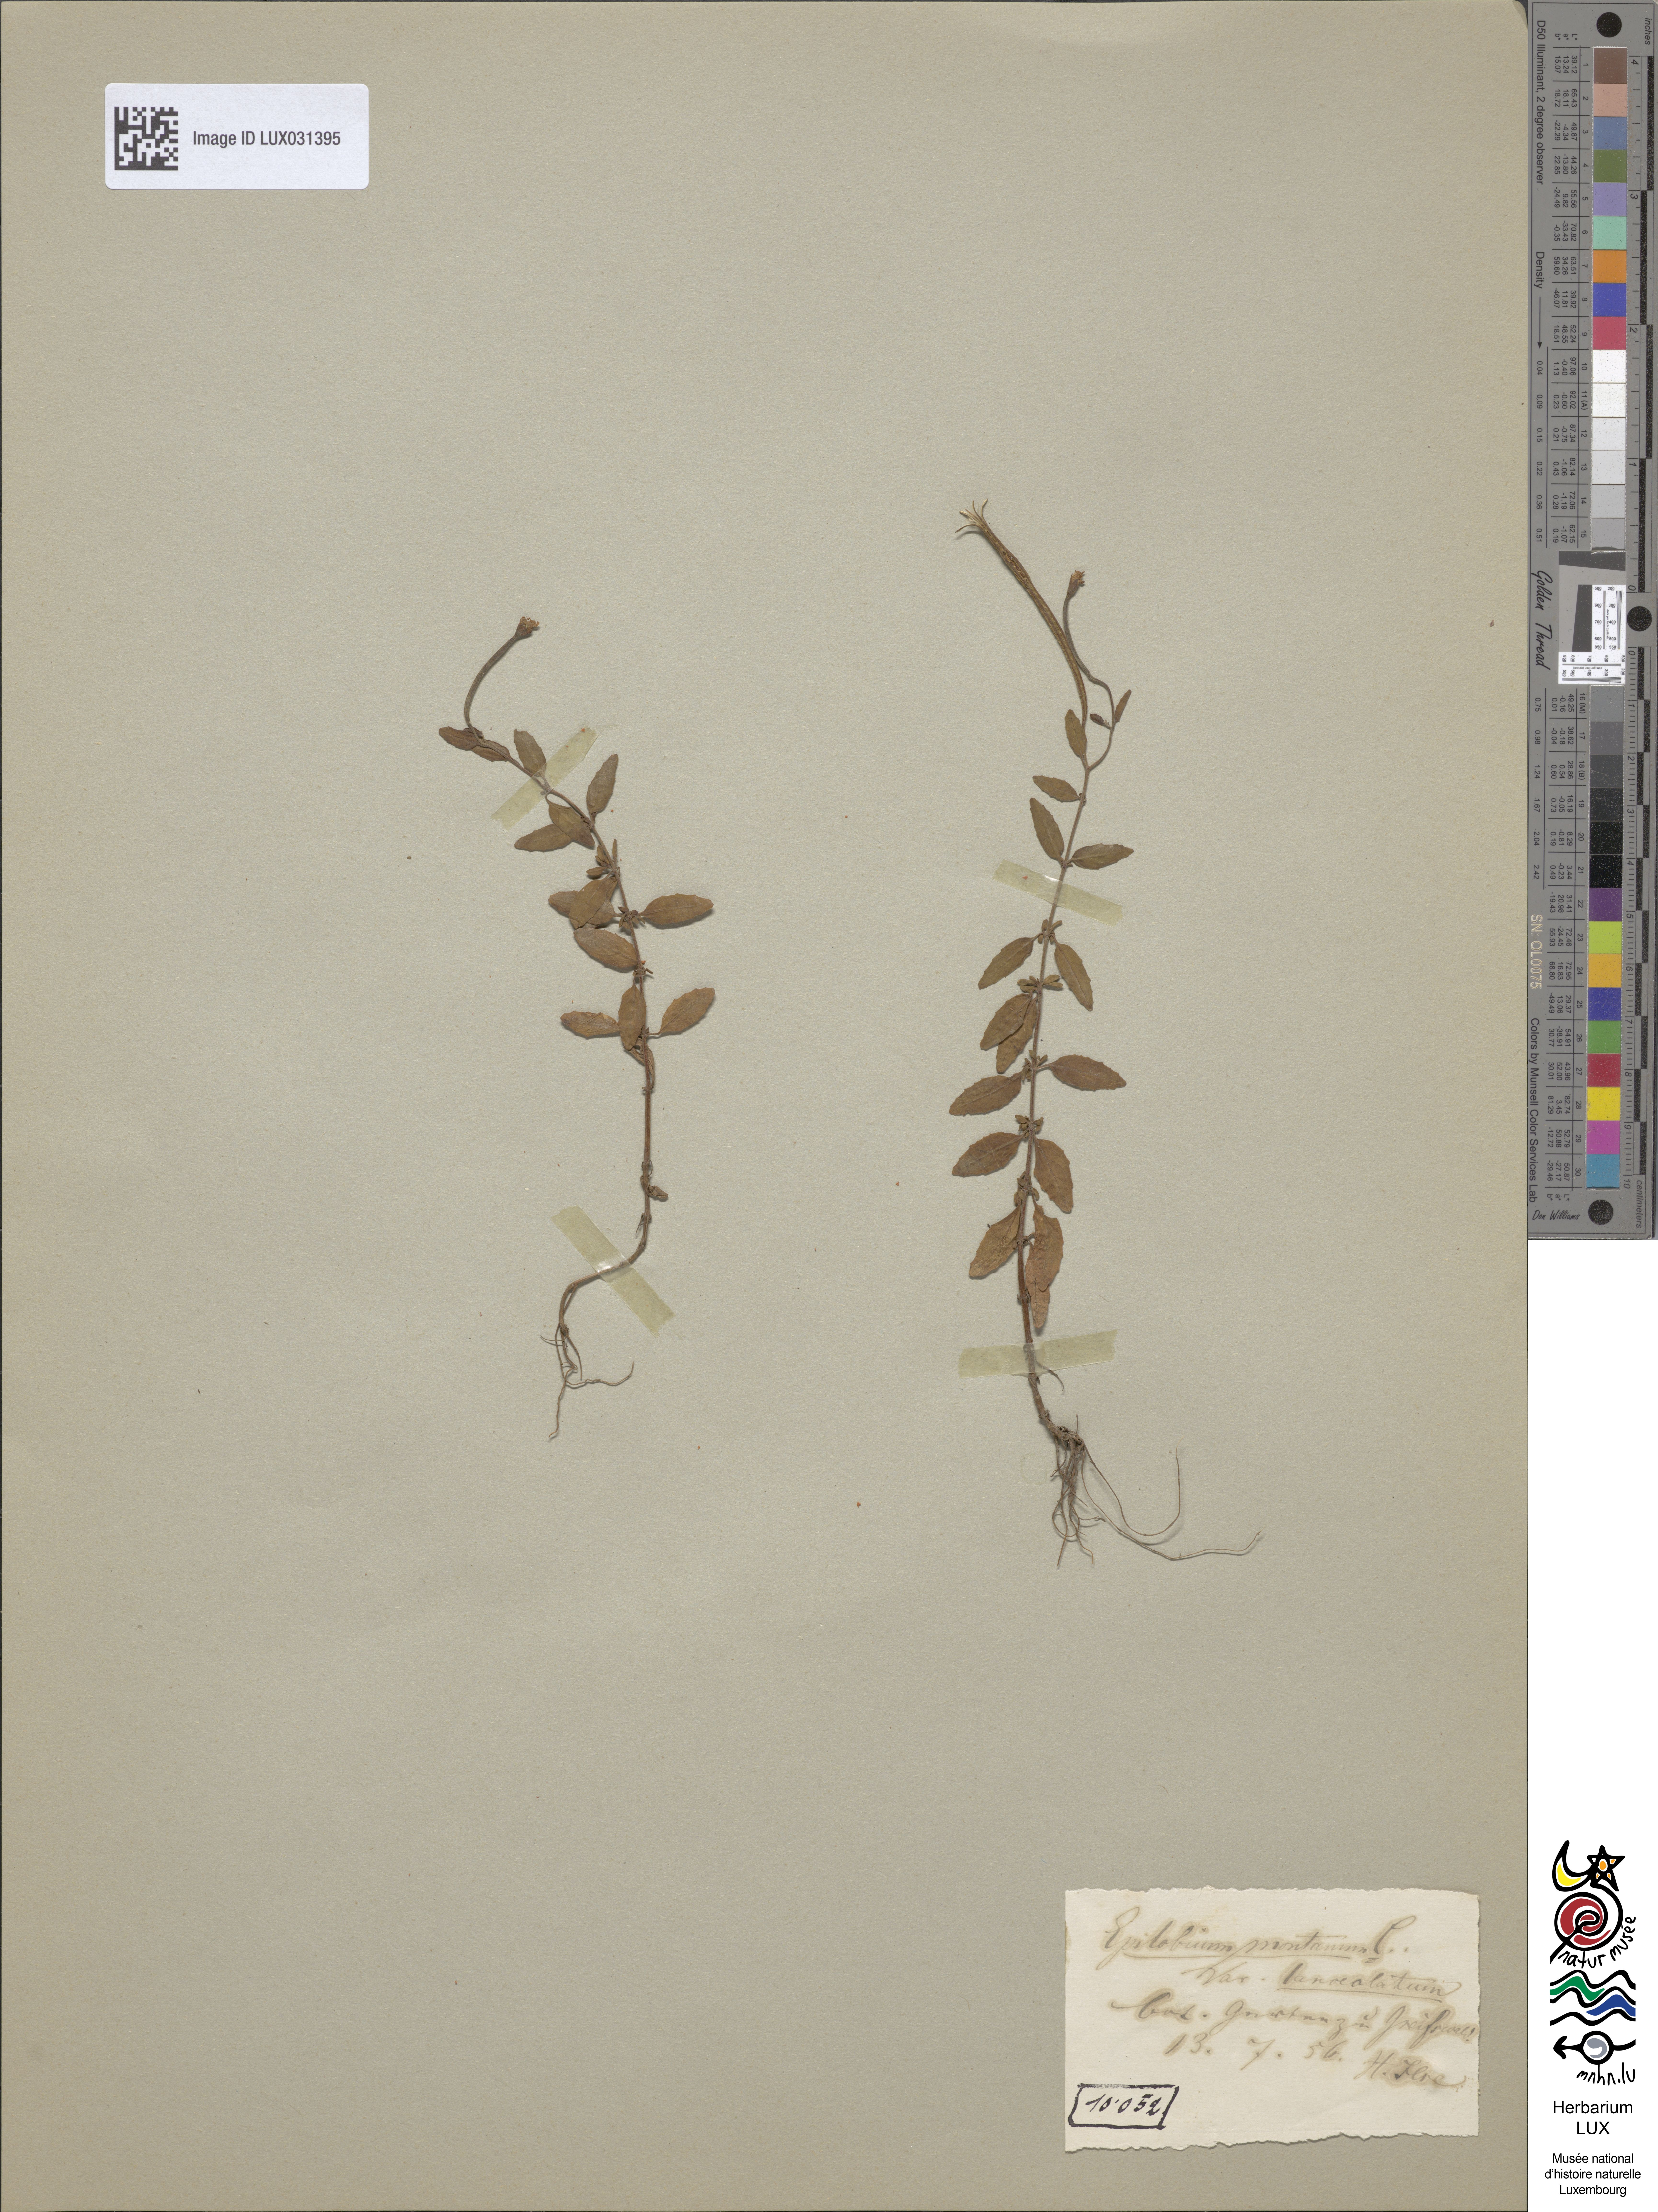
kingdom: Plantae
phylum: Tracheophyta
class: Magnoliopsida
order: Myrtales
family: Onagraceae
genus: Epilobium
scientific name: Epilobium lanceolatum
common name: Spear-leaved willowherb
